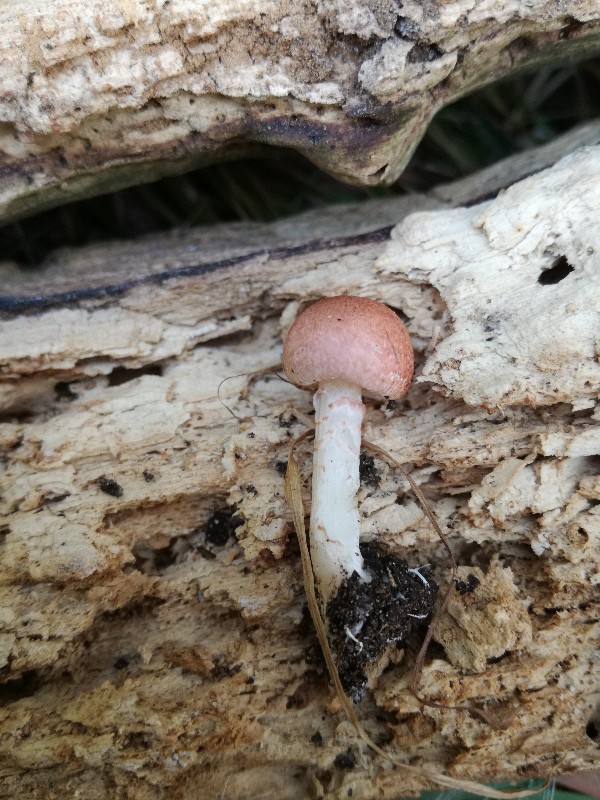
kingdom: Fungi
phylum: Basidiomycota
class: Agaricomycetes
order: Agaricales
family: Agaricaceae
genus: Lepiota
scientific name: Lepiota subincarnata
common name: kødfarvet parasolhat
